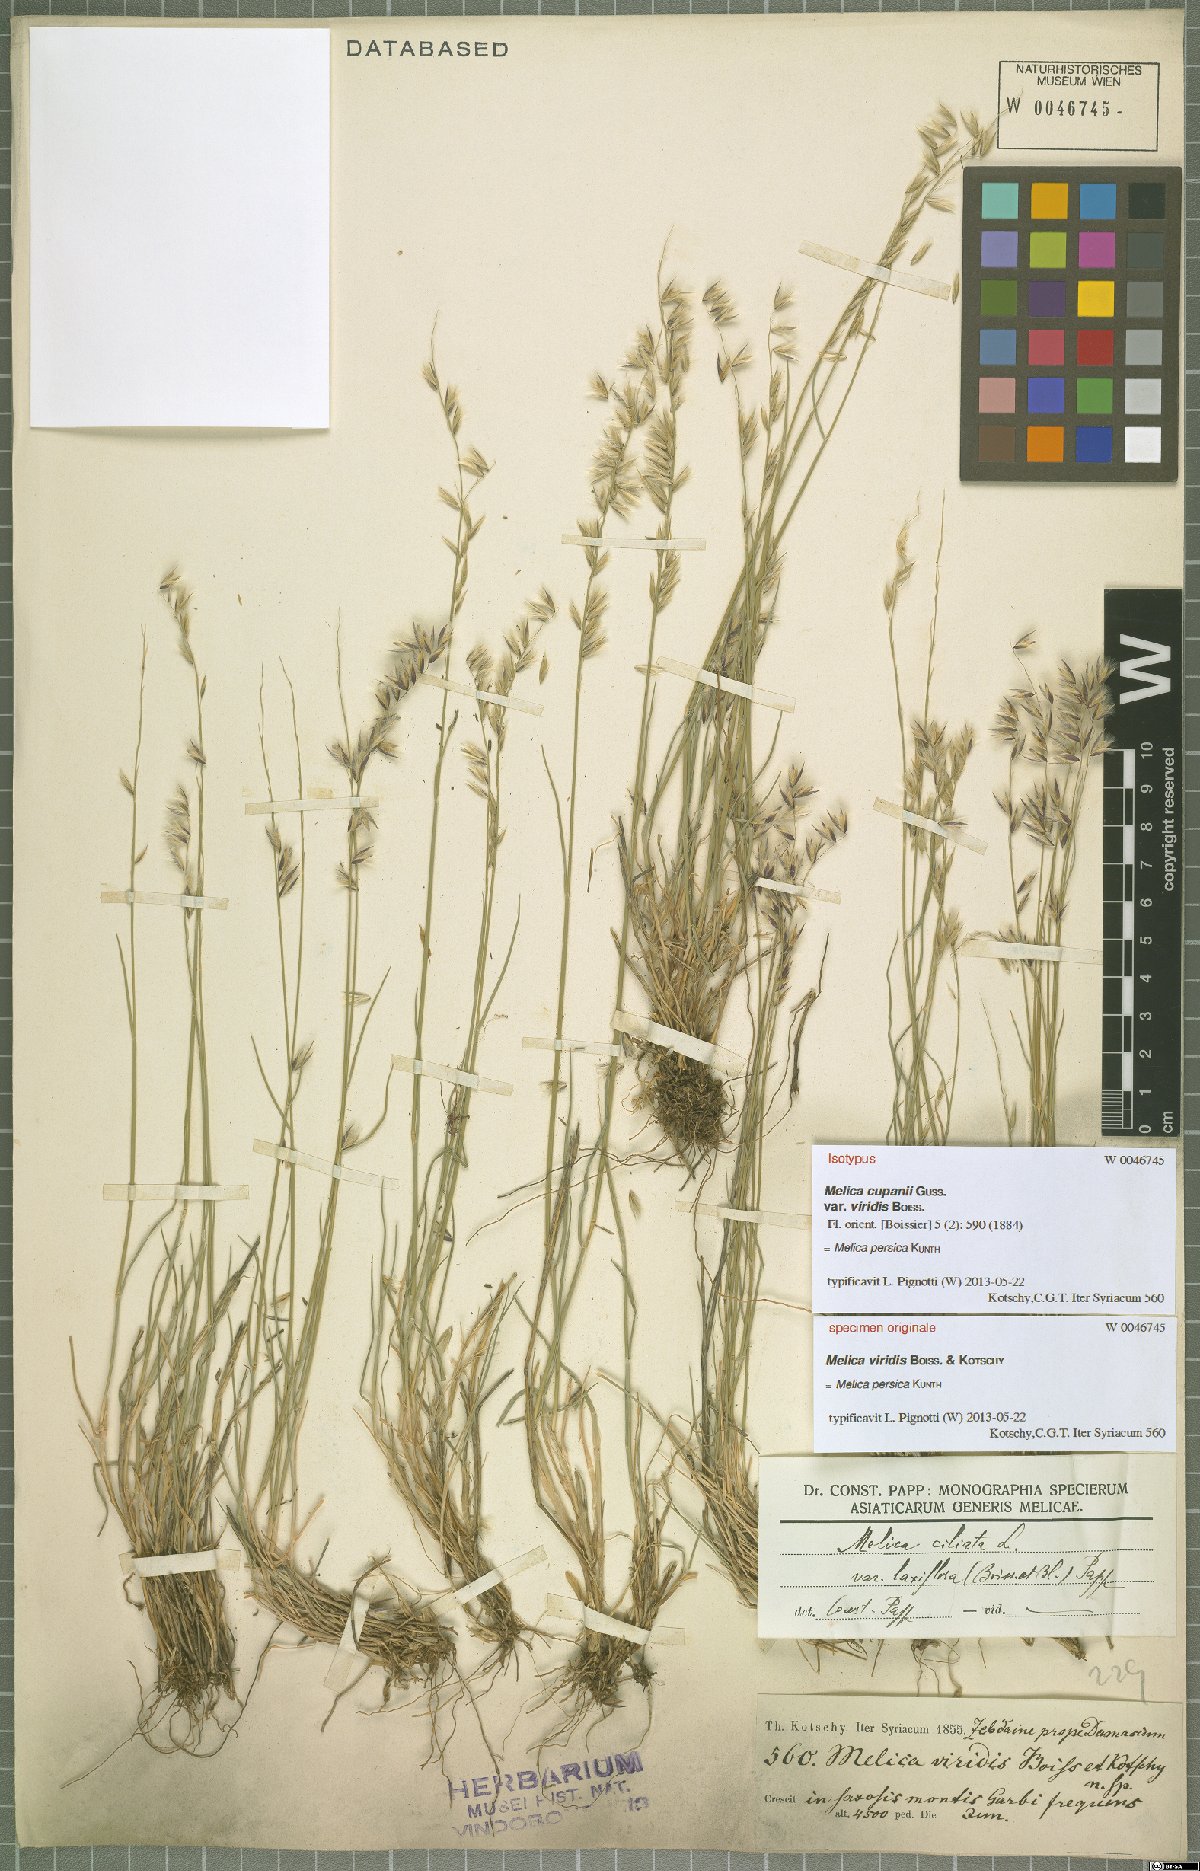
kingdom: Plantae
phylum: Tracheophyta
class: Liliopsida
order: Poales
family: Poaceae
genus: Melica
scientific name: Melica persica
